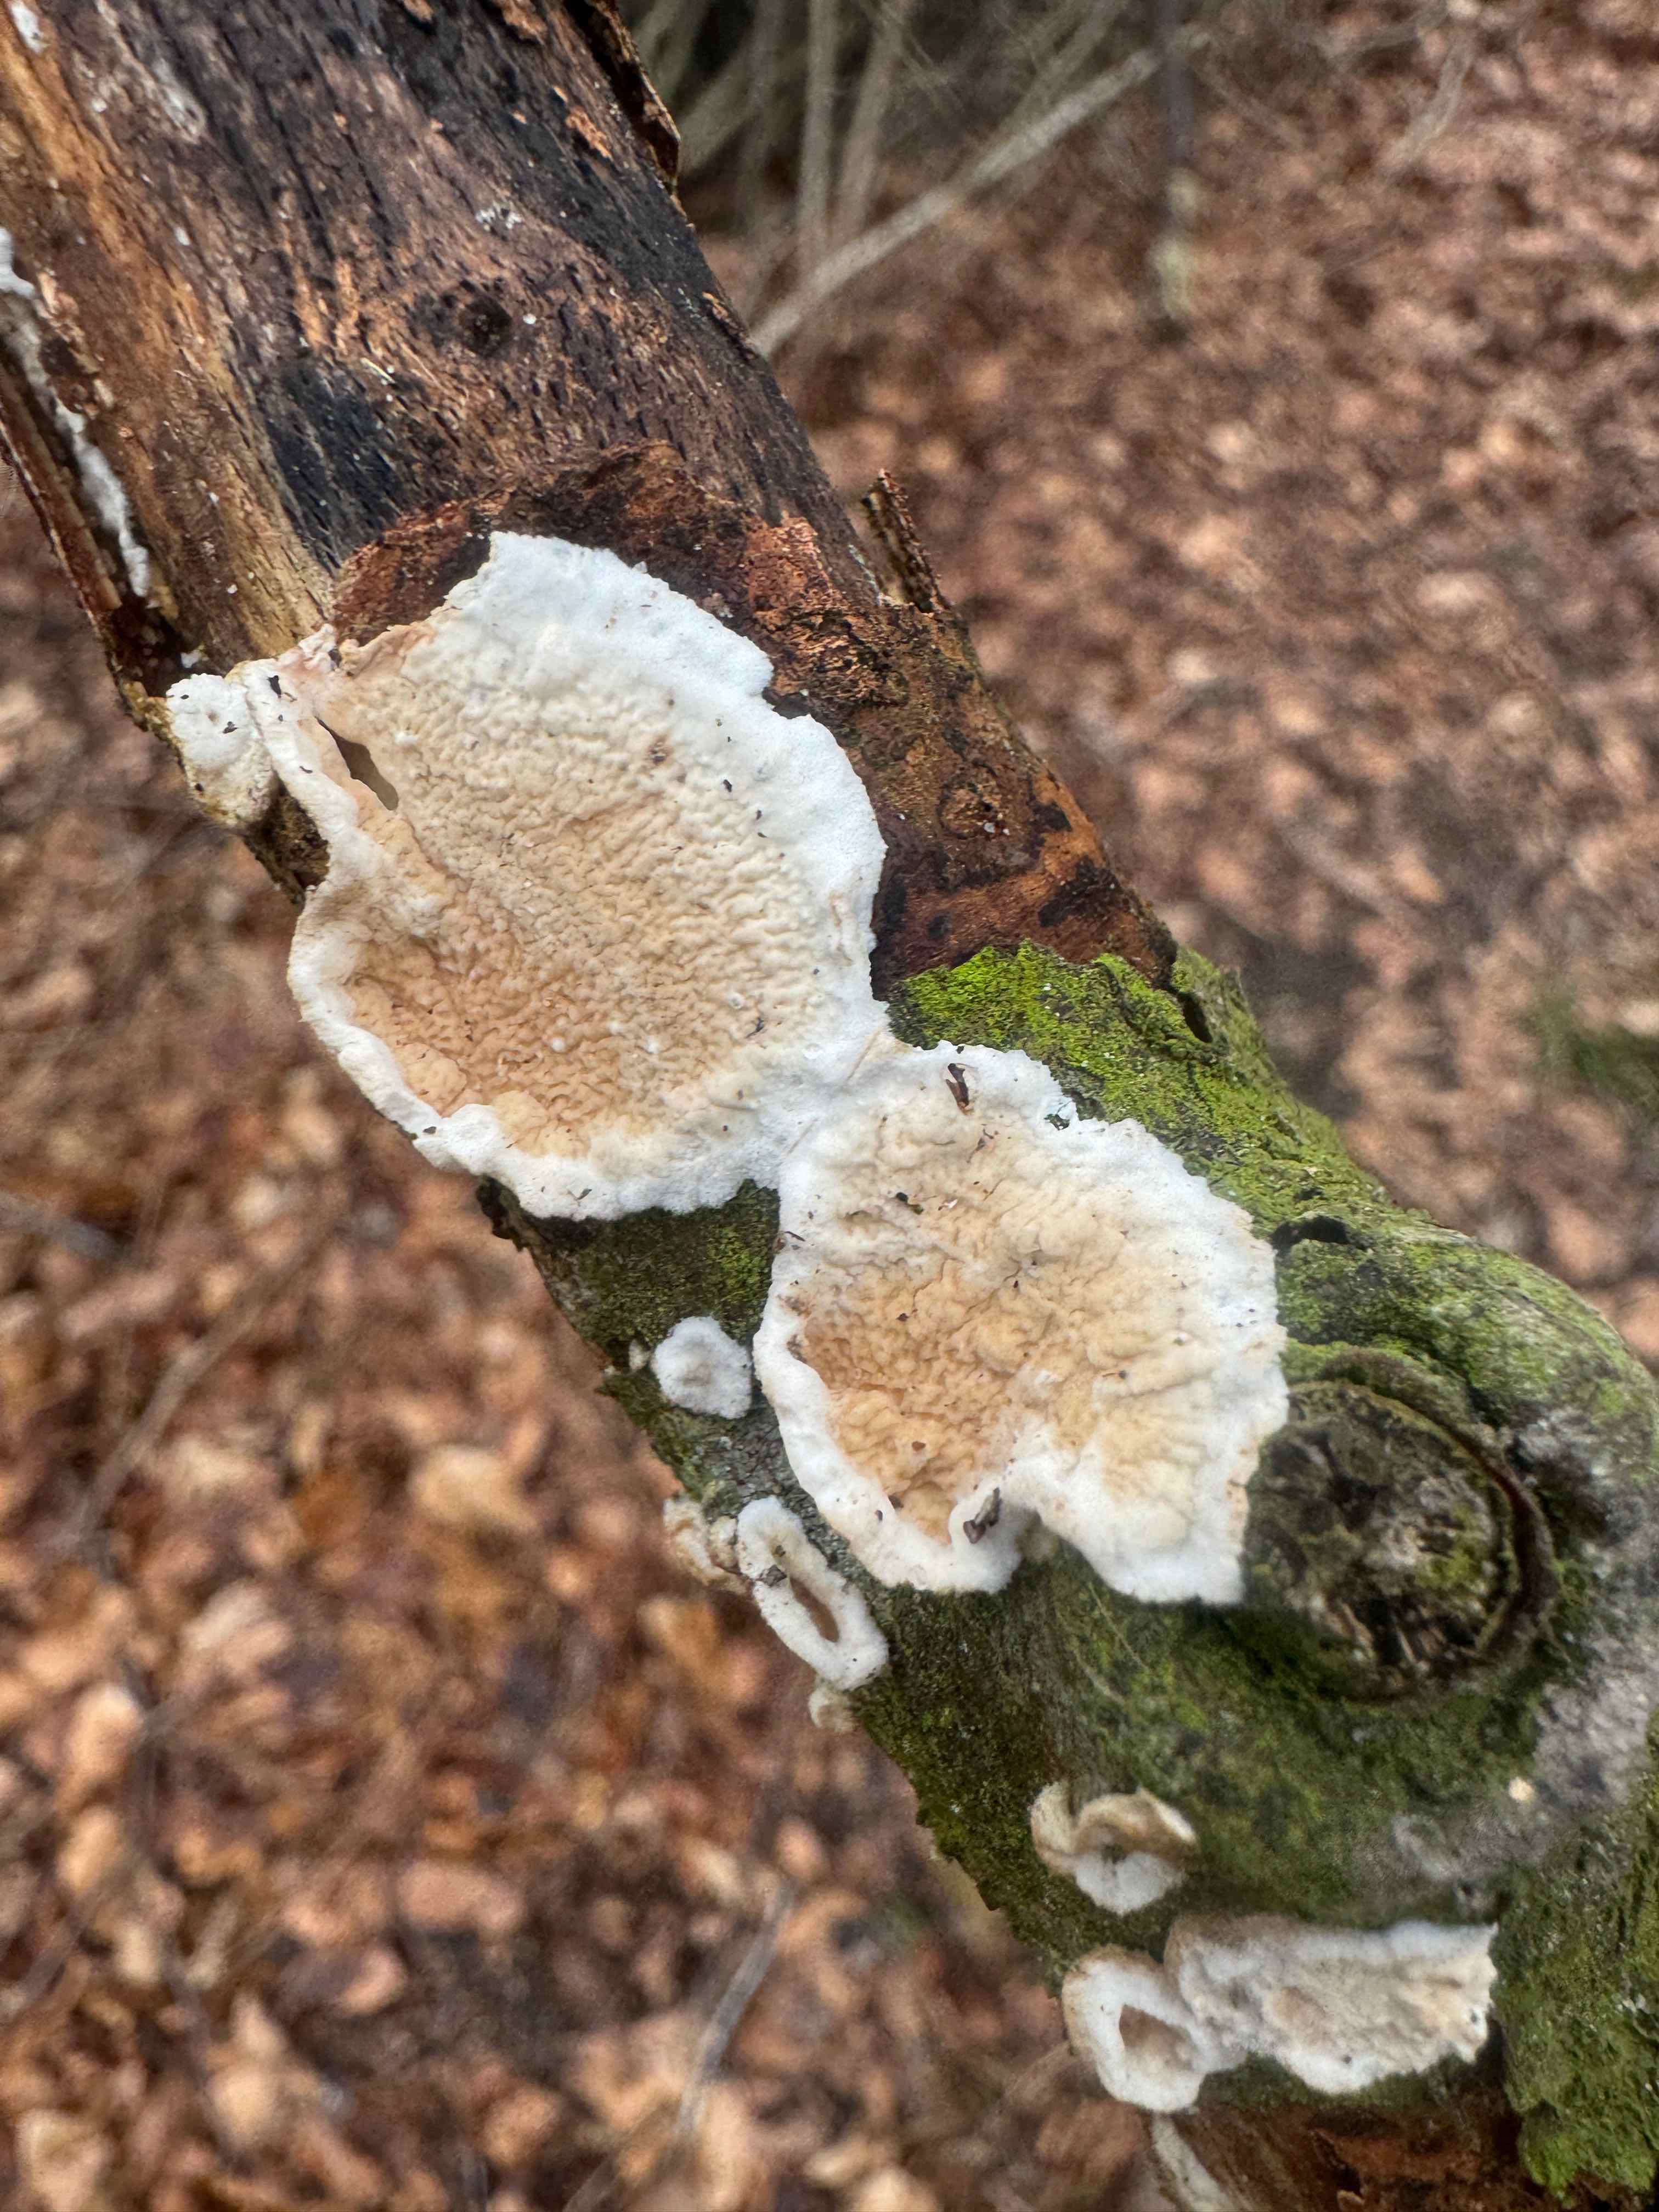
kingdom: Fungi
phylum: Basidiomycota
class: Agaricomycetes
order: Polyporales
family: Irpicaceae
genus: Byssomerulius
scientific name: Byssomerulius corium
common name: læder-åresvamp
